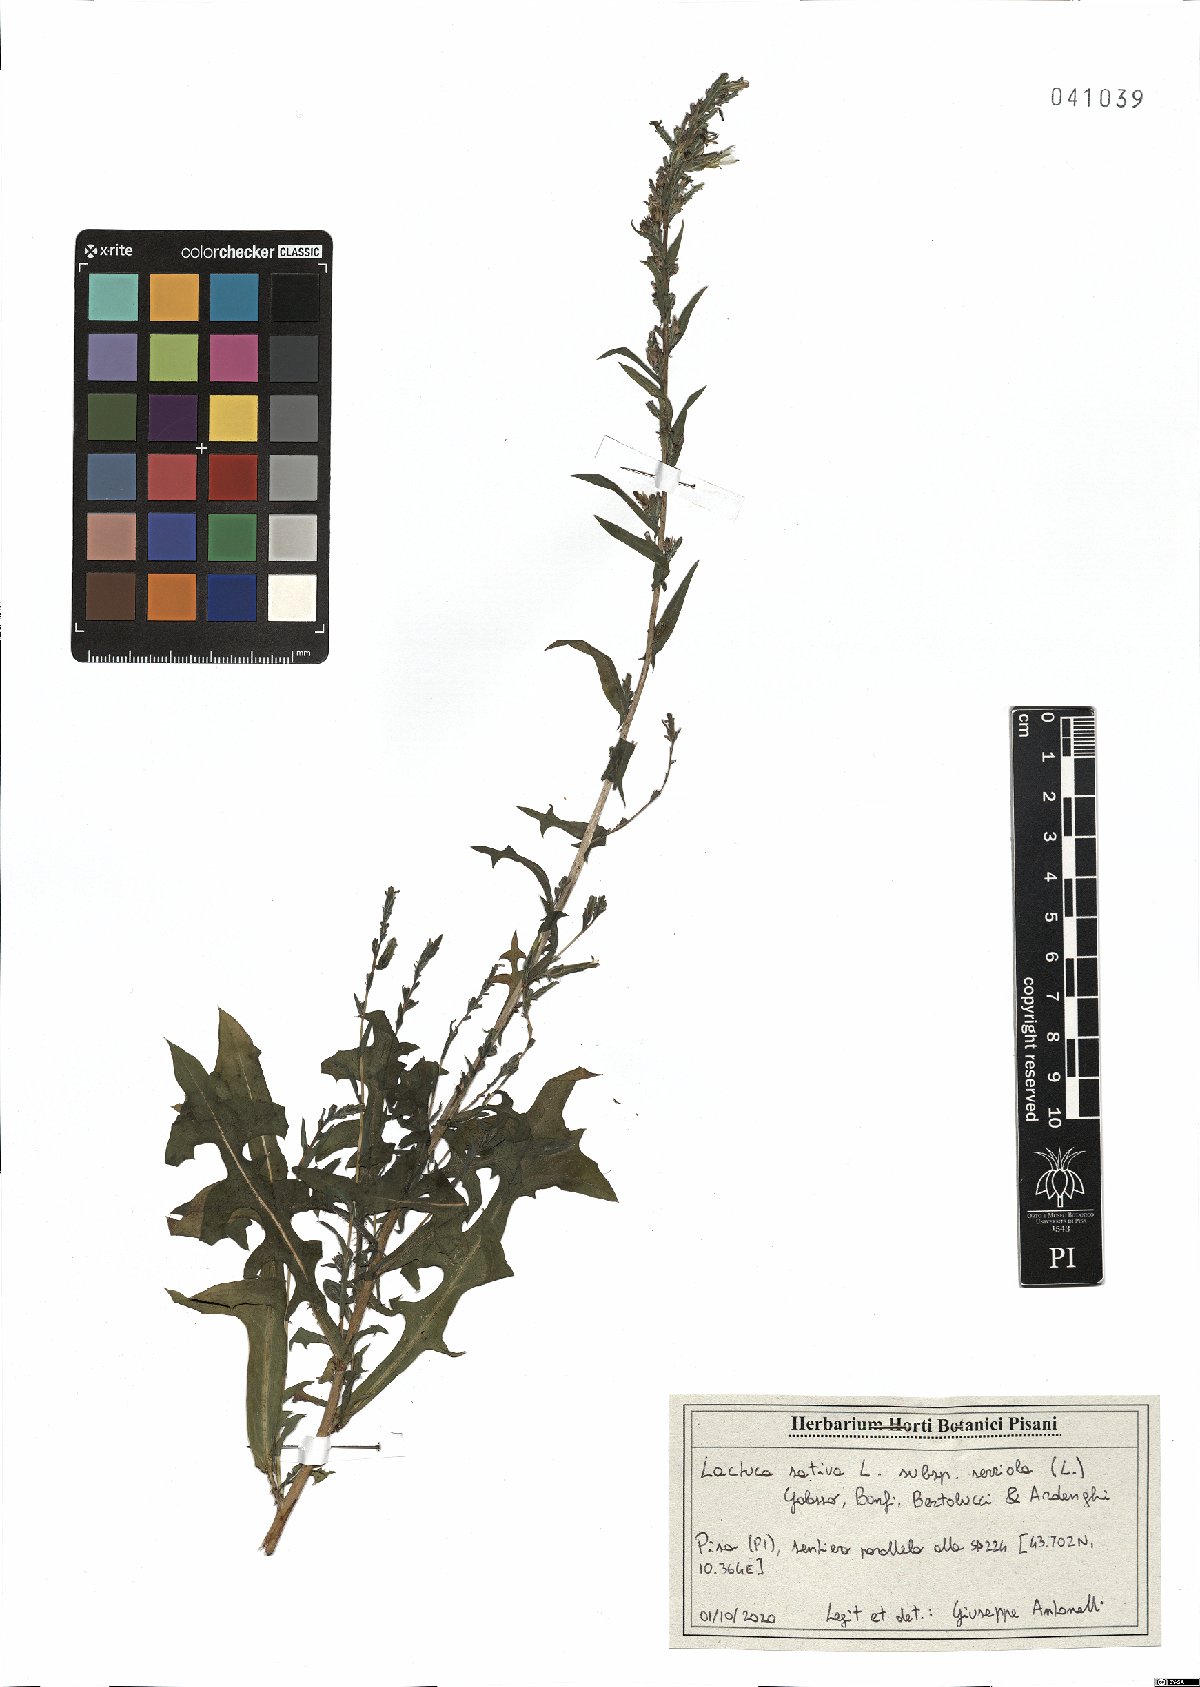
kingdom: Plantae
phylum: Tracheophyta
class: Magnoliopsida
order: Asterales
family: Asteraceae
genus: Lactuca
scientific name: Lactuca serriola
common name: Prickly lettuce
